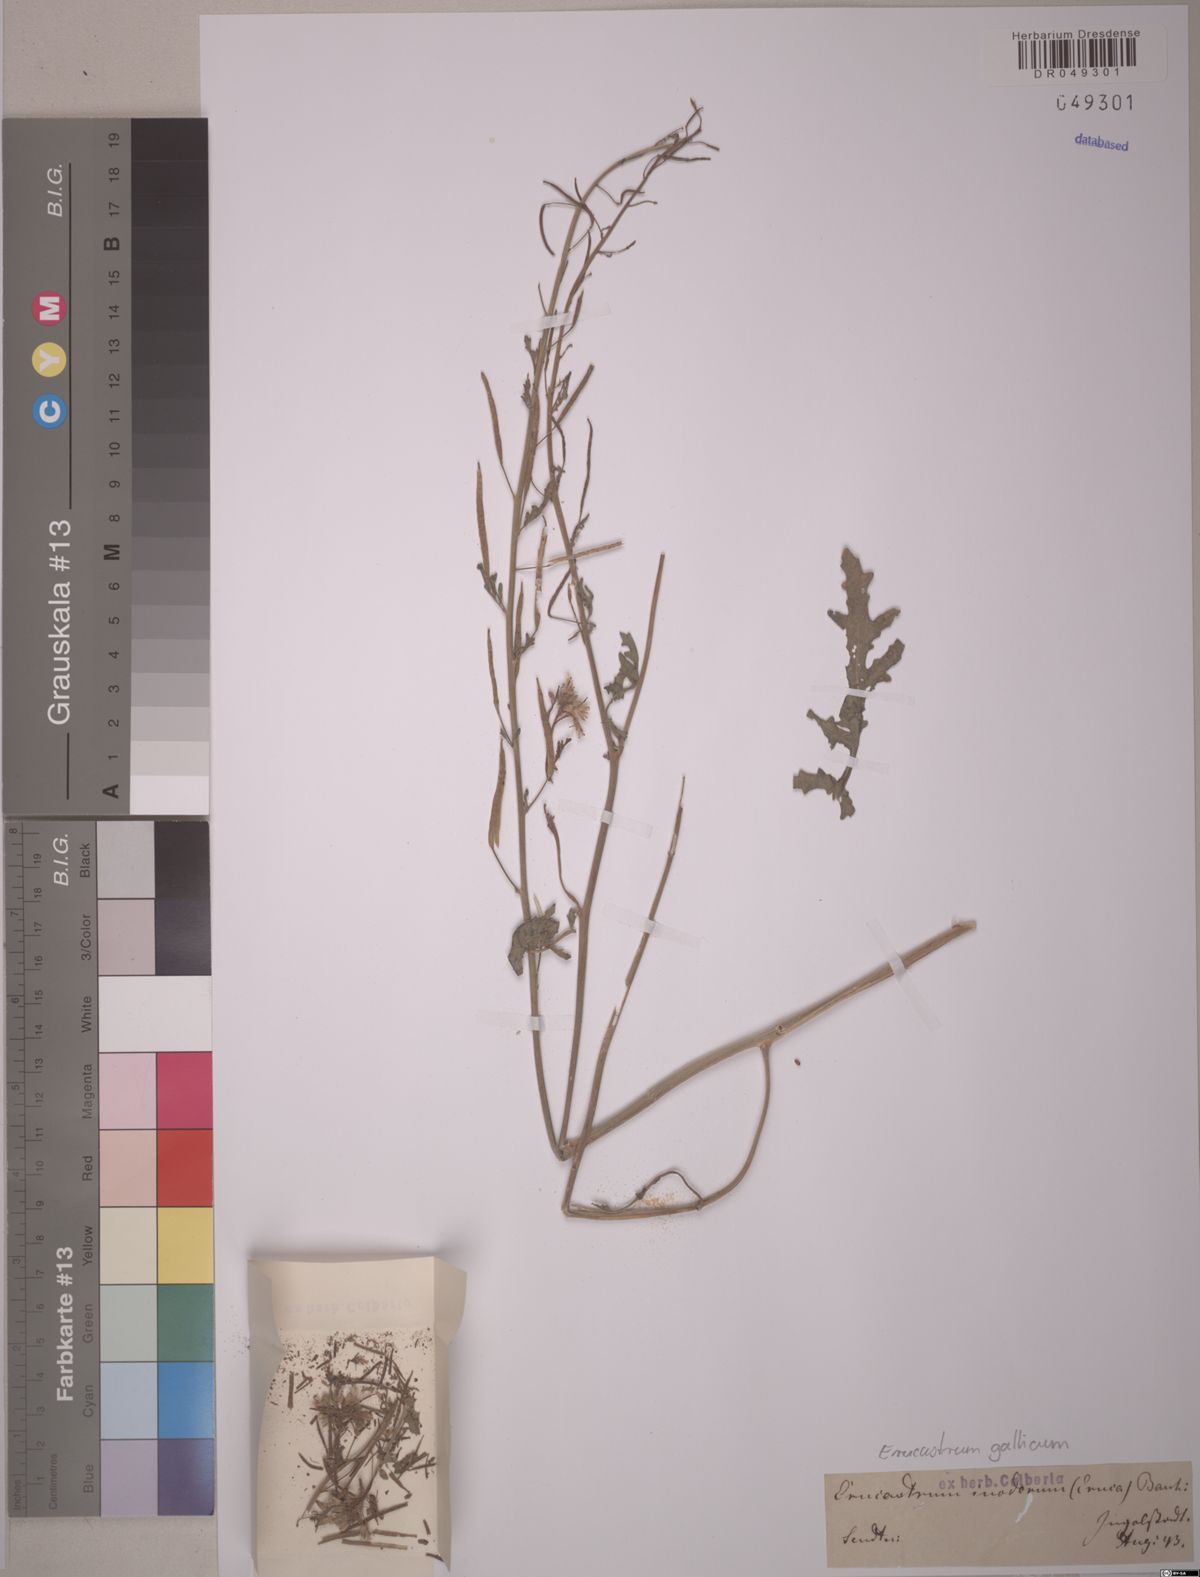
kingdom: Plantae
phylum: Tracheophyta
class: Magnoliopsida
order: Brassicales
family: Brassicaceae
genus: Erucastrum
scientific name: Erucastrum gallicum
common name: Hairy rocket
